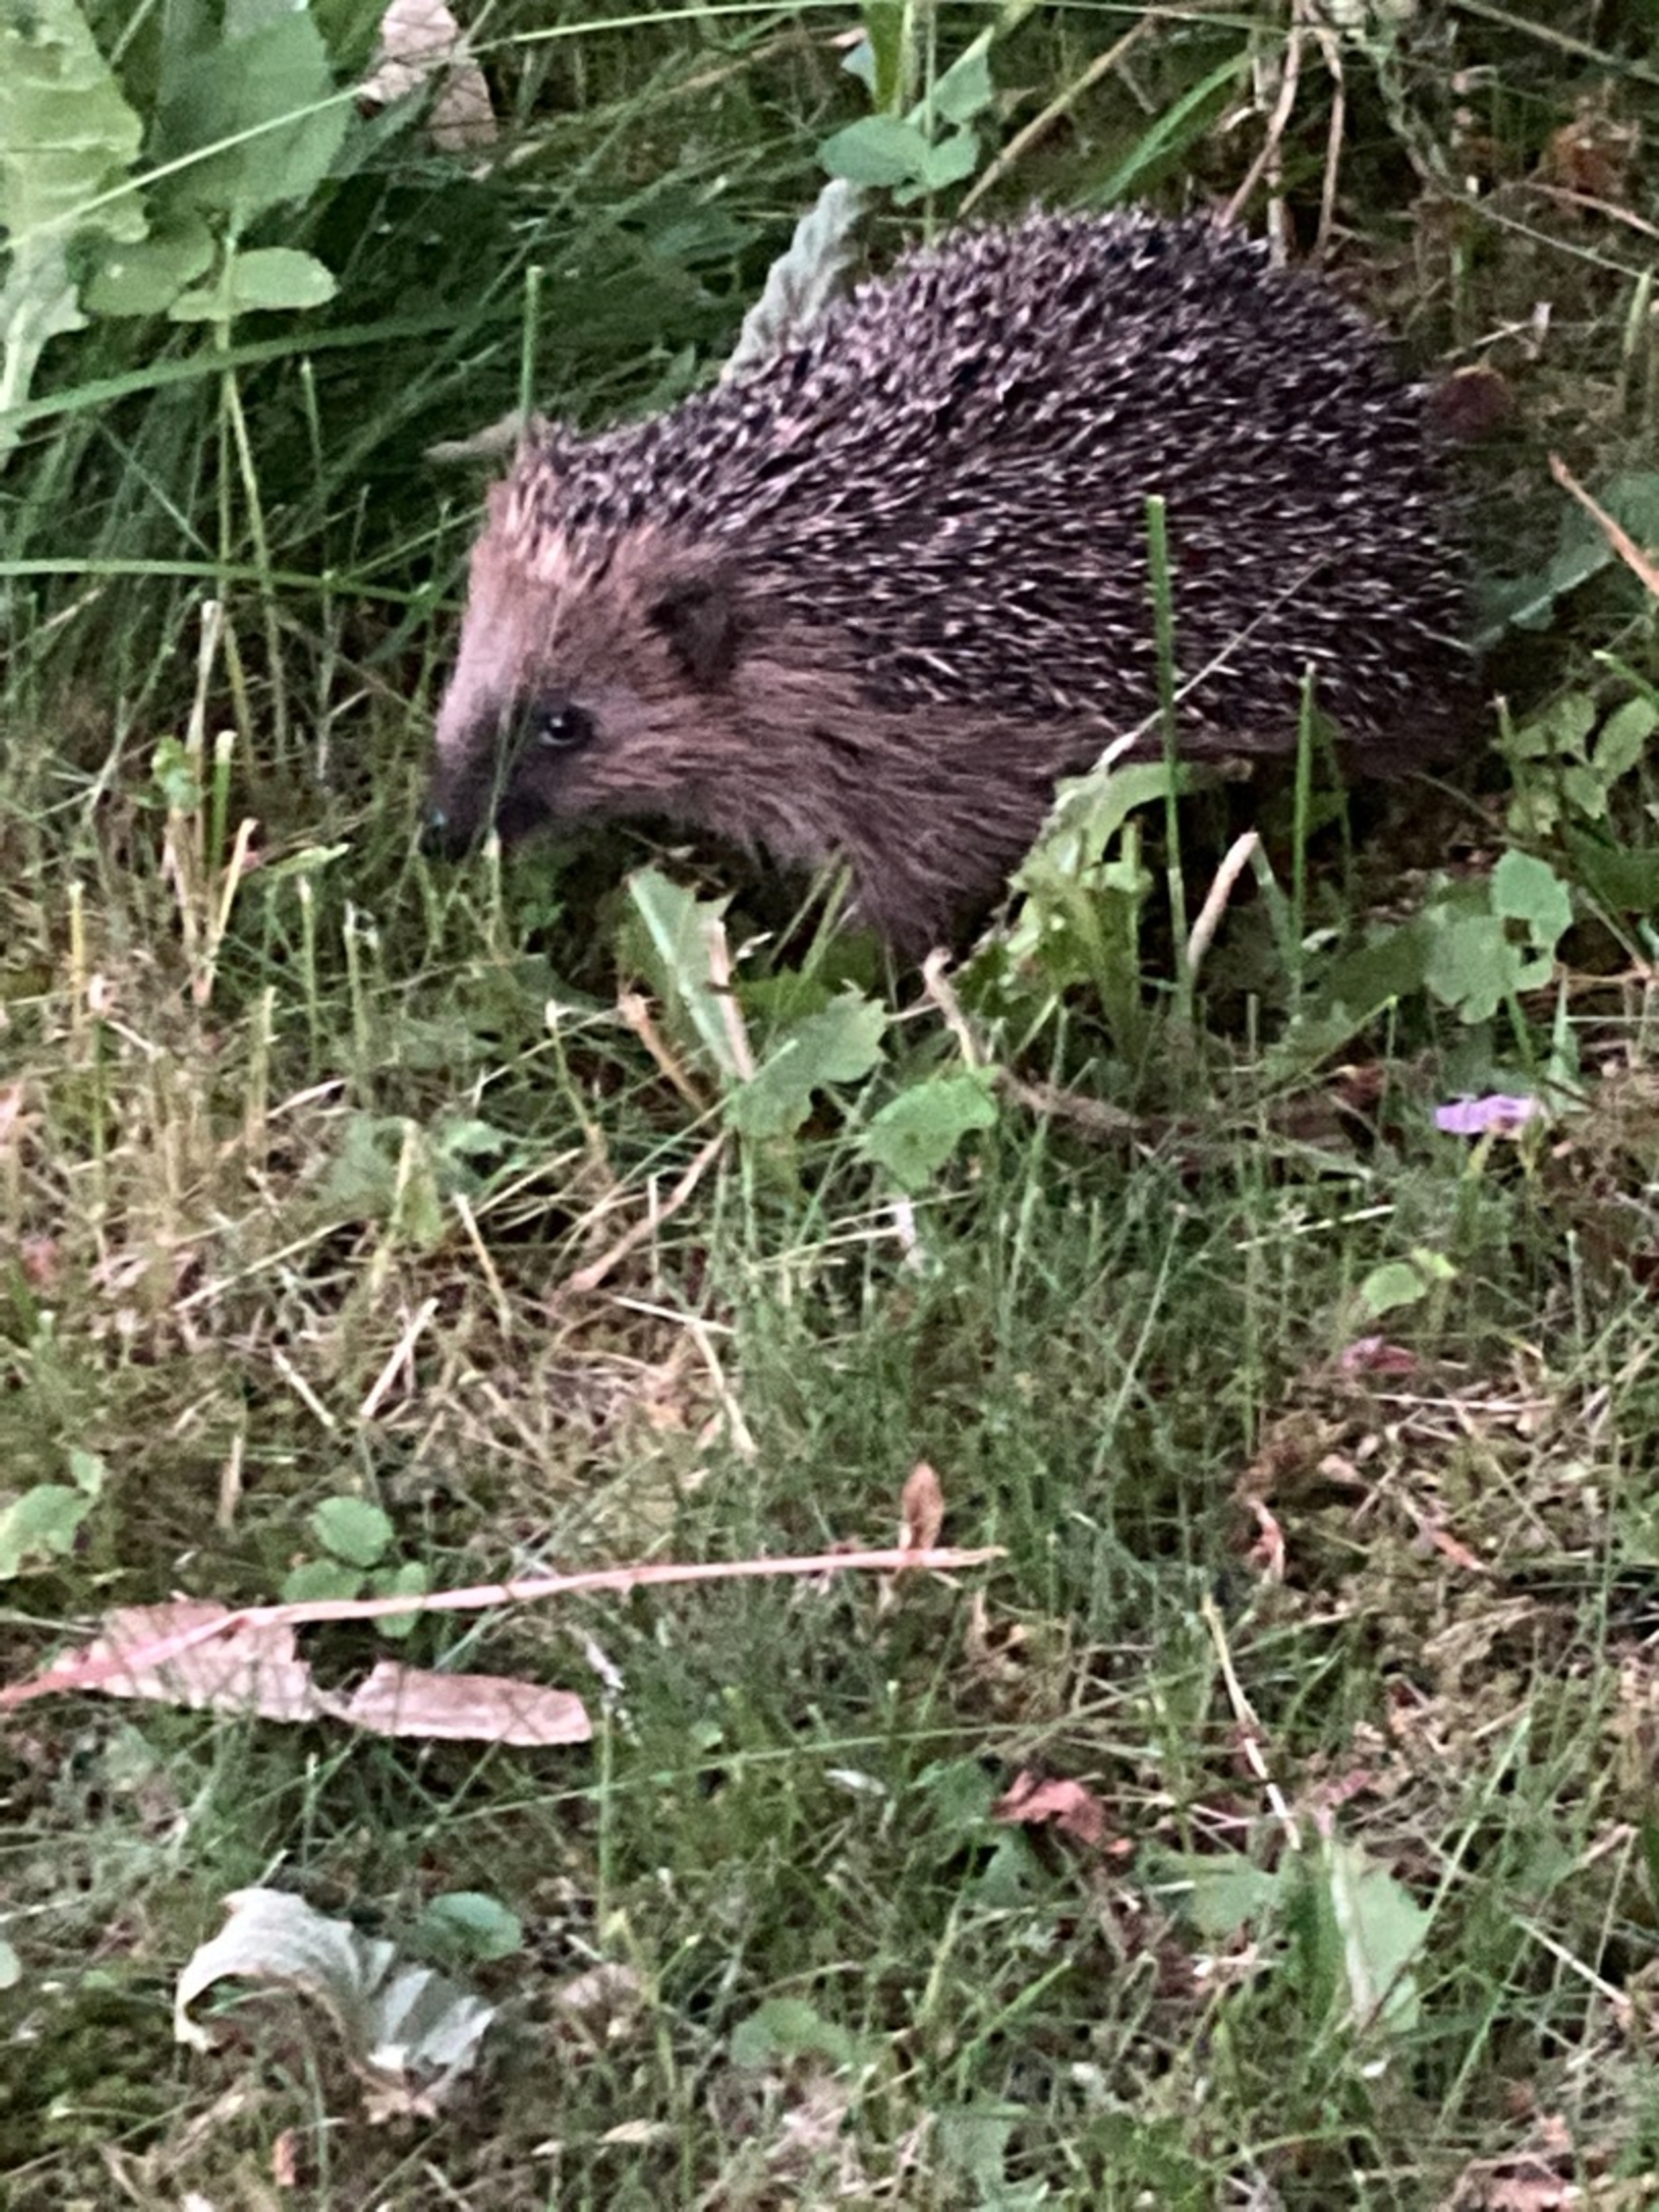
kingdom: Animalia
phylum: Chordata
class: Mammalia
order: Erinaceomorpha
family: Erinaceidae
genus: Erinaceus
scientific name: Erinaceus europaeus
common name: Pindsvin
